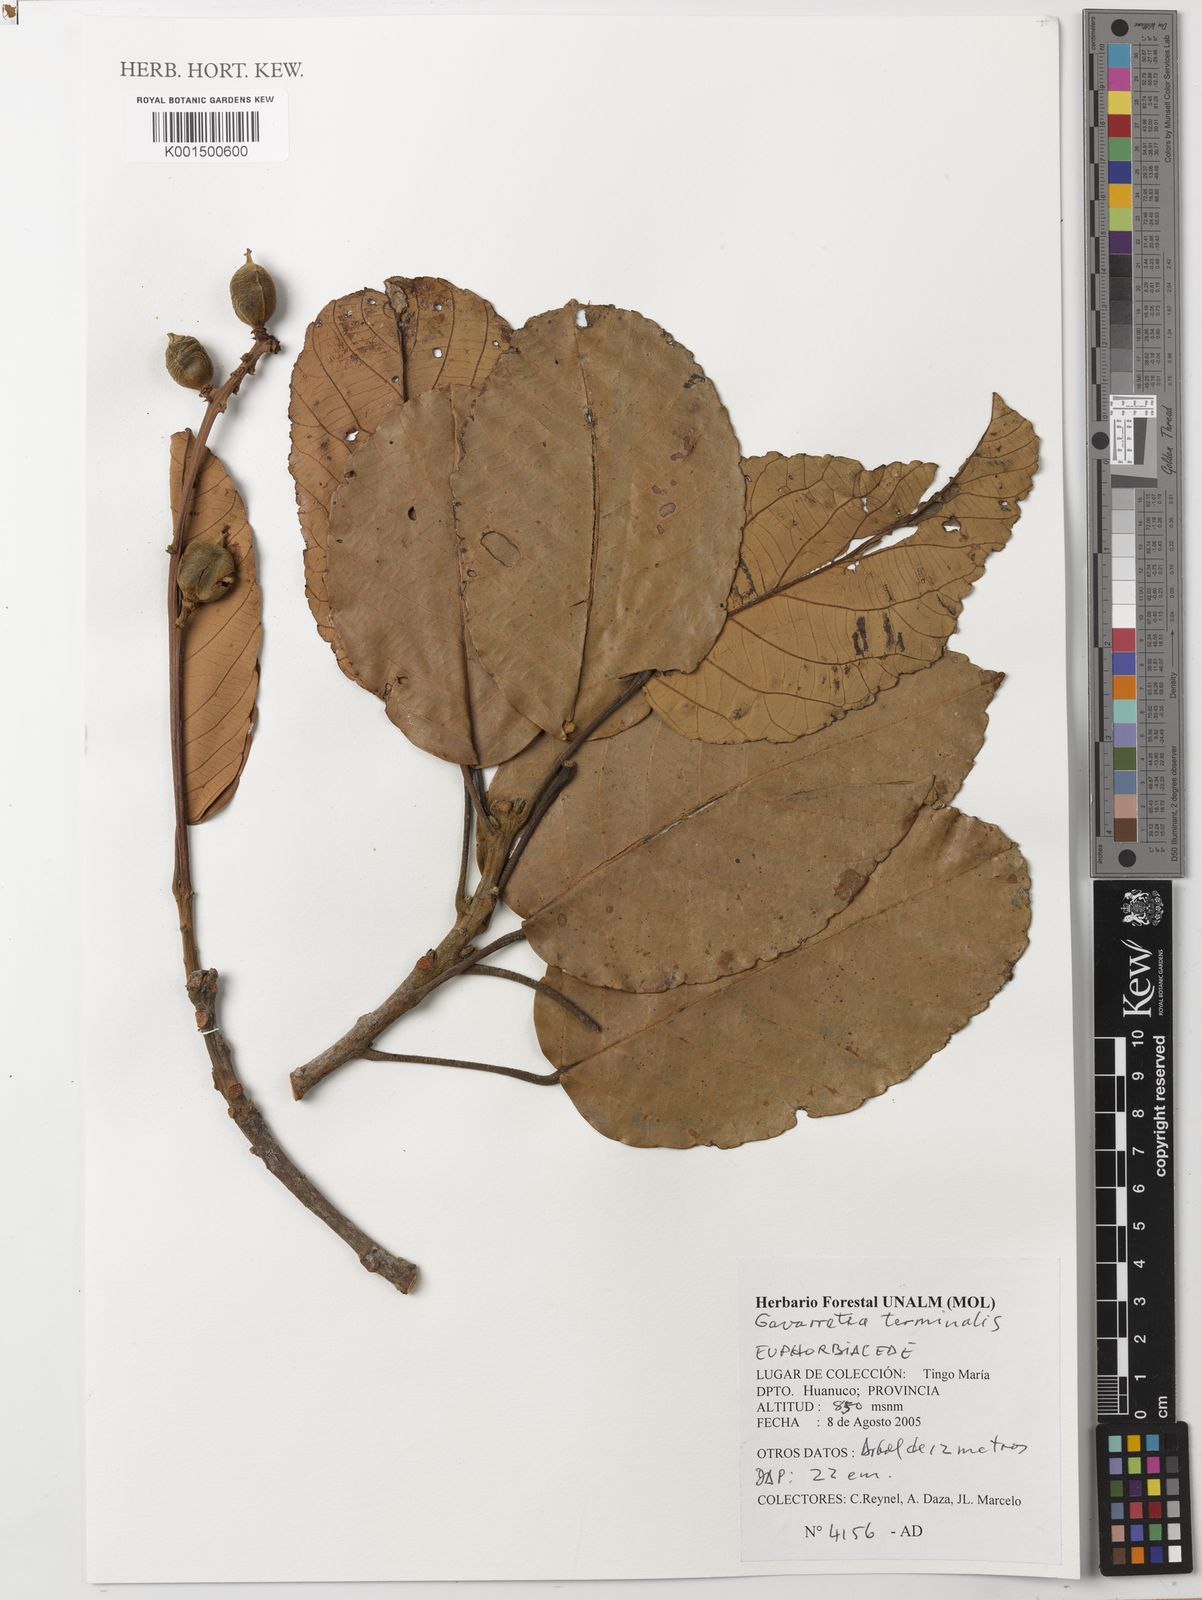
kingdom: Plantae
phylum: Tracheophyta
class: Magnoliopsida
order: Malpighiales
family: Euphorbiaceae
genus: Conceveiba
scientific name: Conceveiba terminalis
